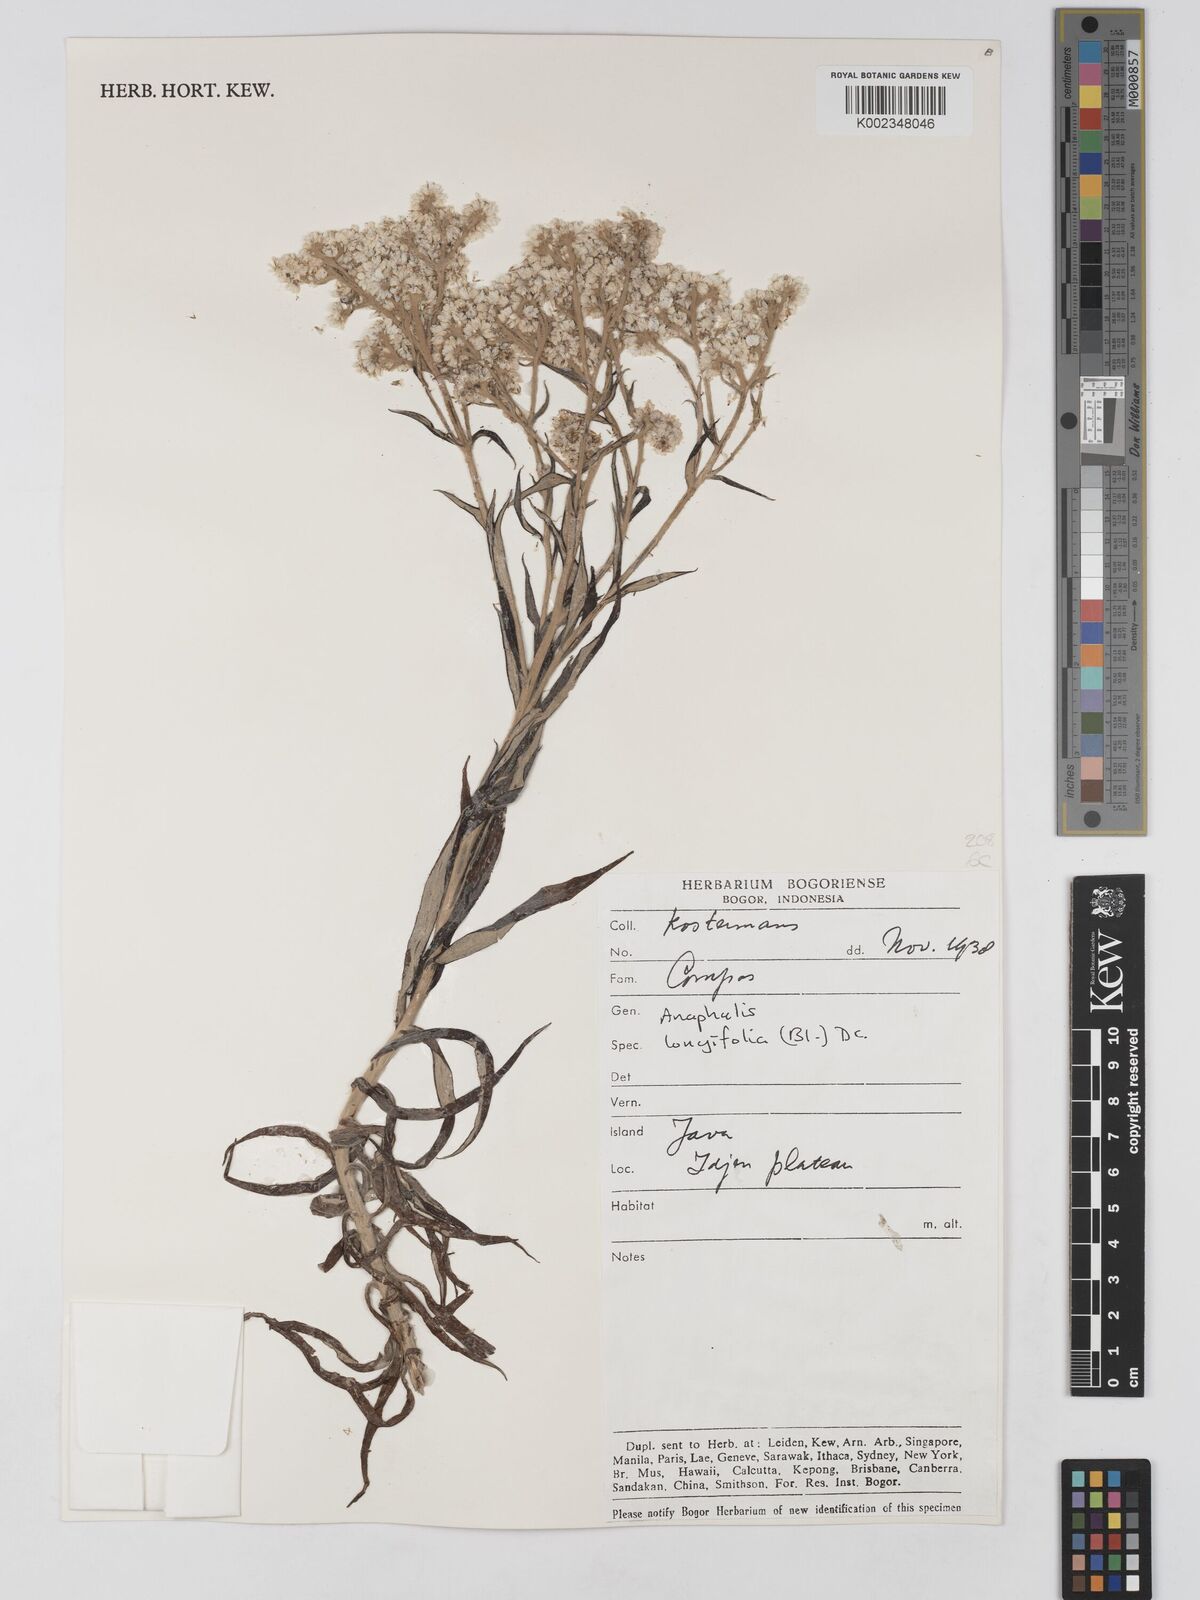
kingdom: Plantae
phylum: Tracheophyta
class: Magnoliopsida
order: Asterales
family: Asteraceae
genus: Anaphalis
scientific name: Anaphalis longifolia
